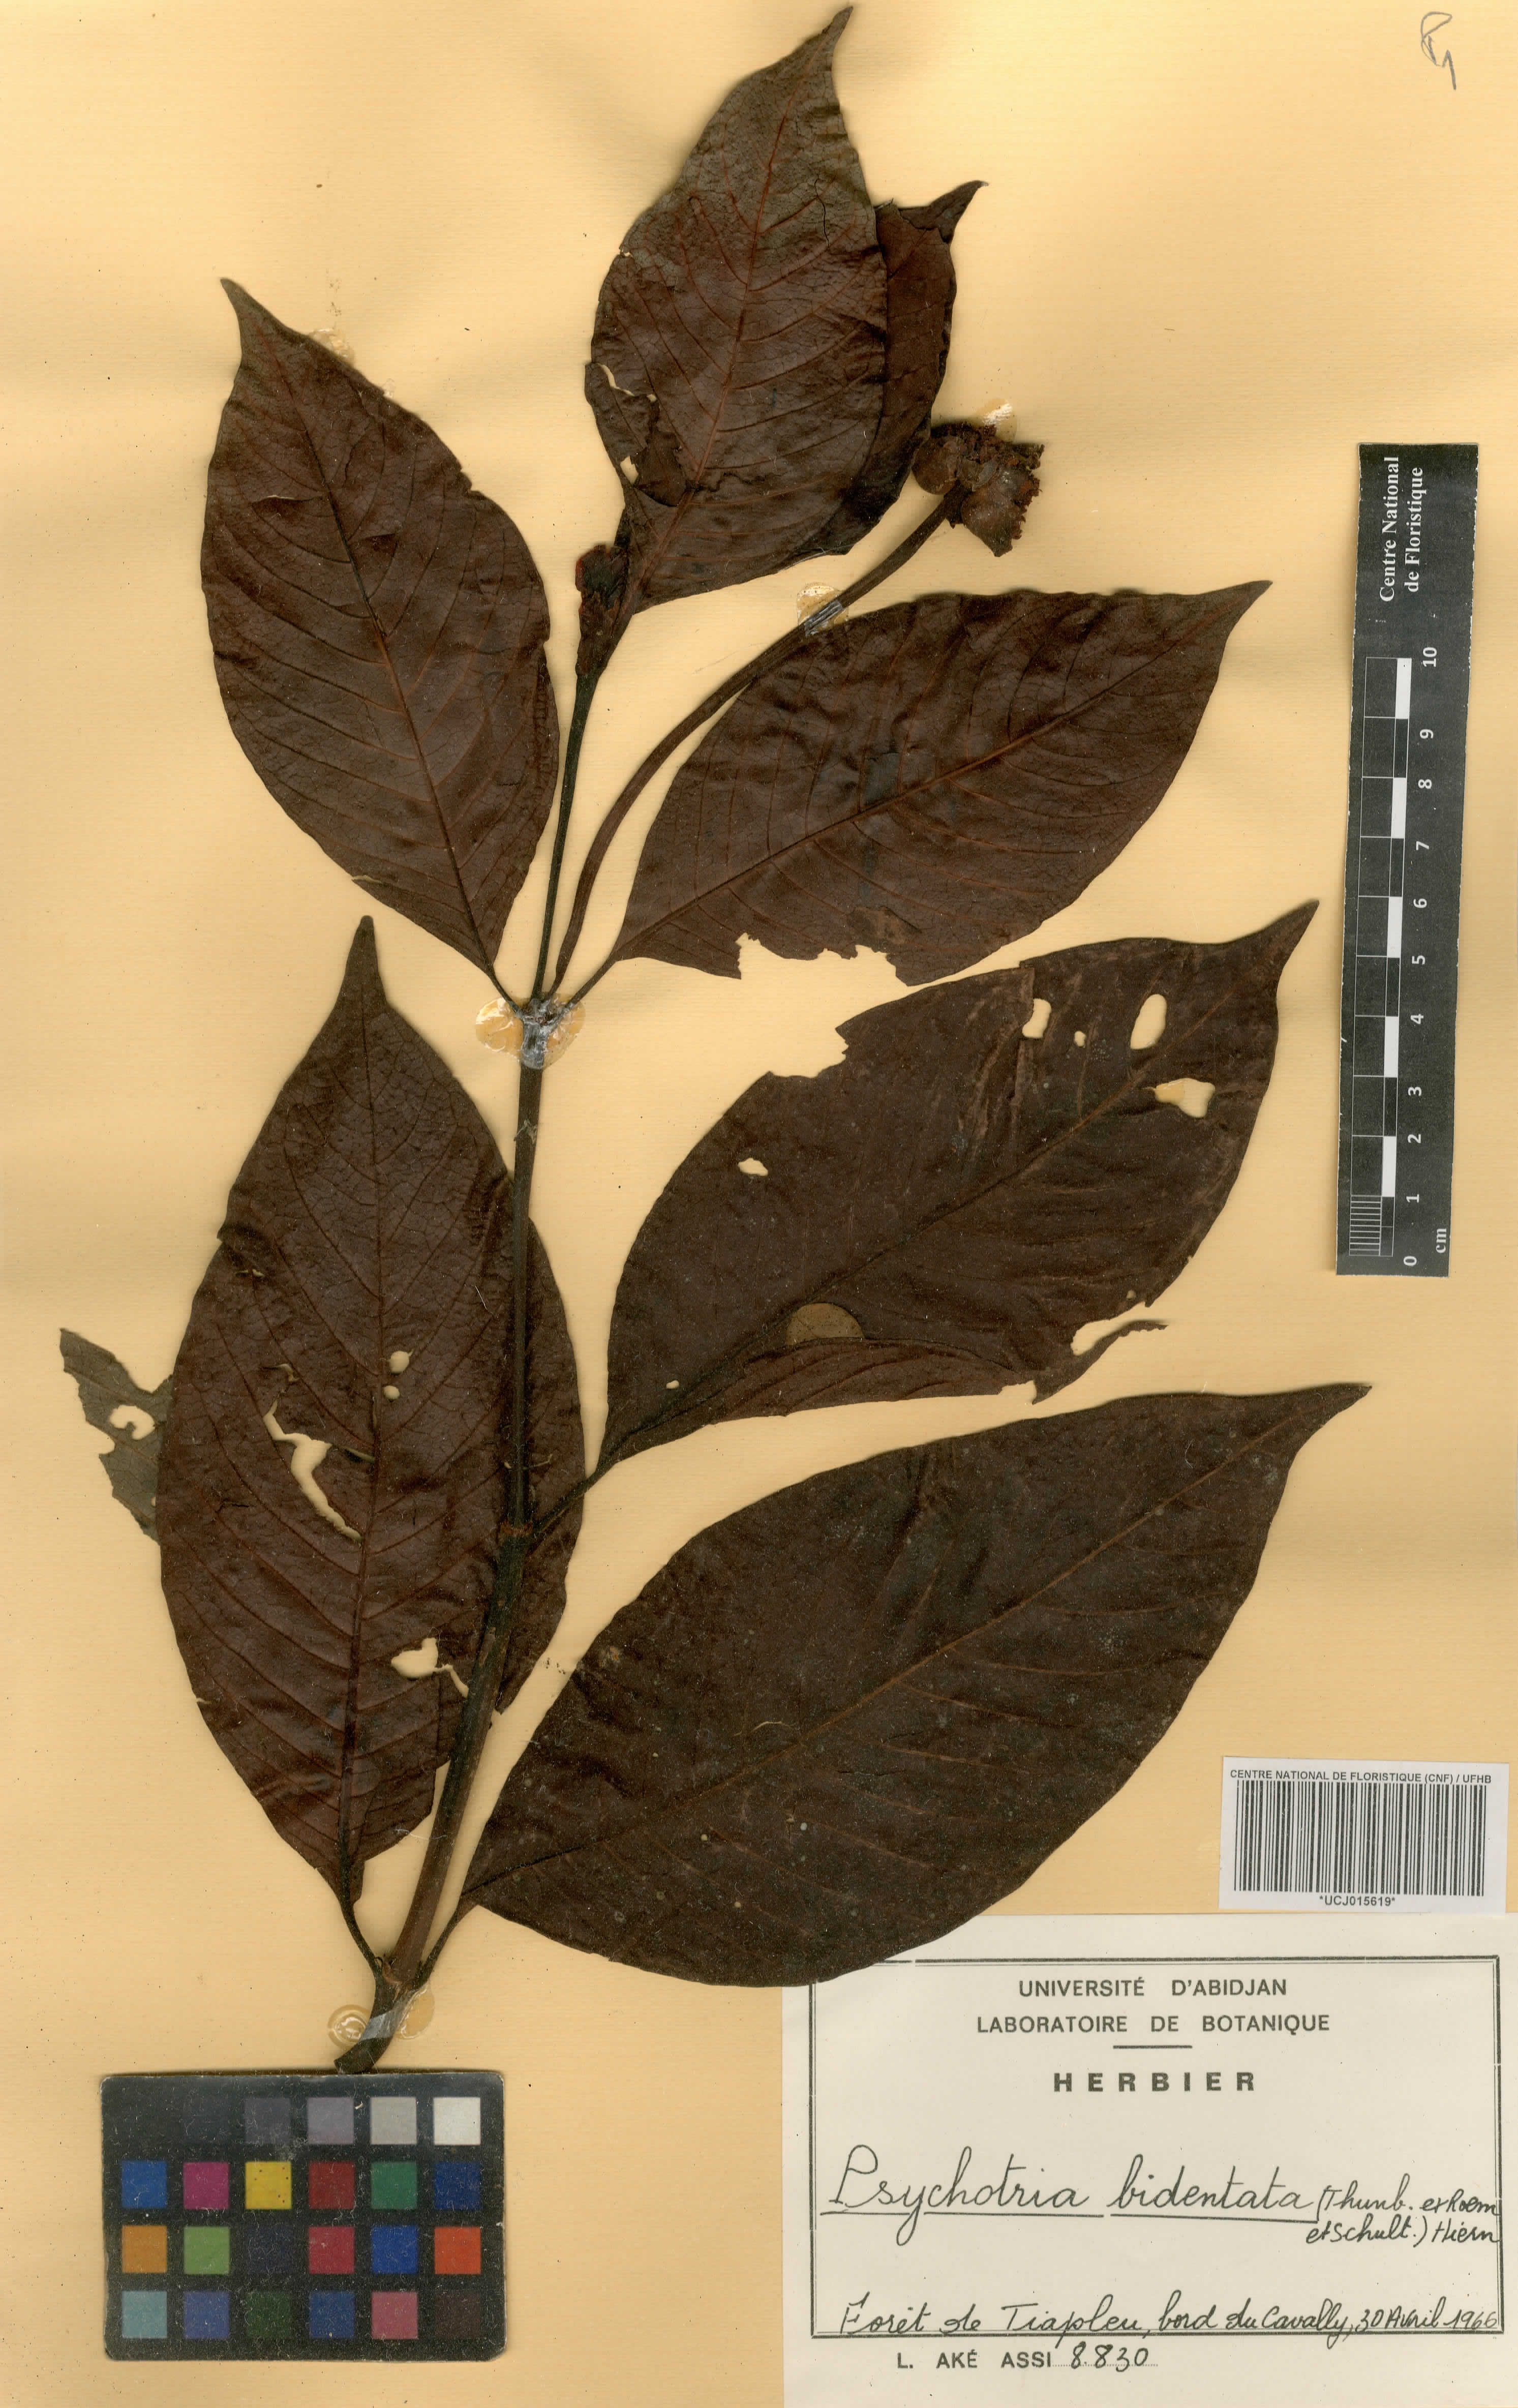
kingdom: Plantae
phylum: Tracheophyta
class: Magnoliopsida
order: Gentianales
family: Rubiaceae
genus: Psychotria
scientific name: Psychotria bidentata
